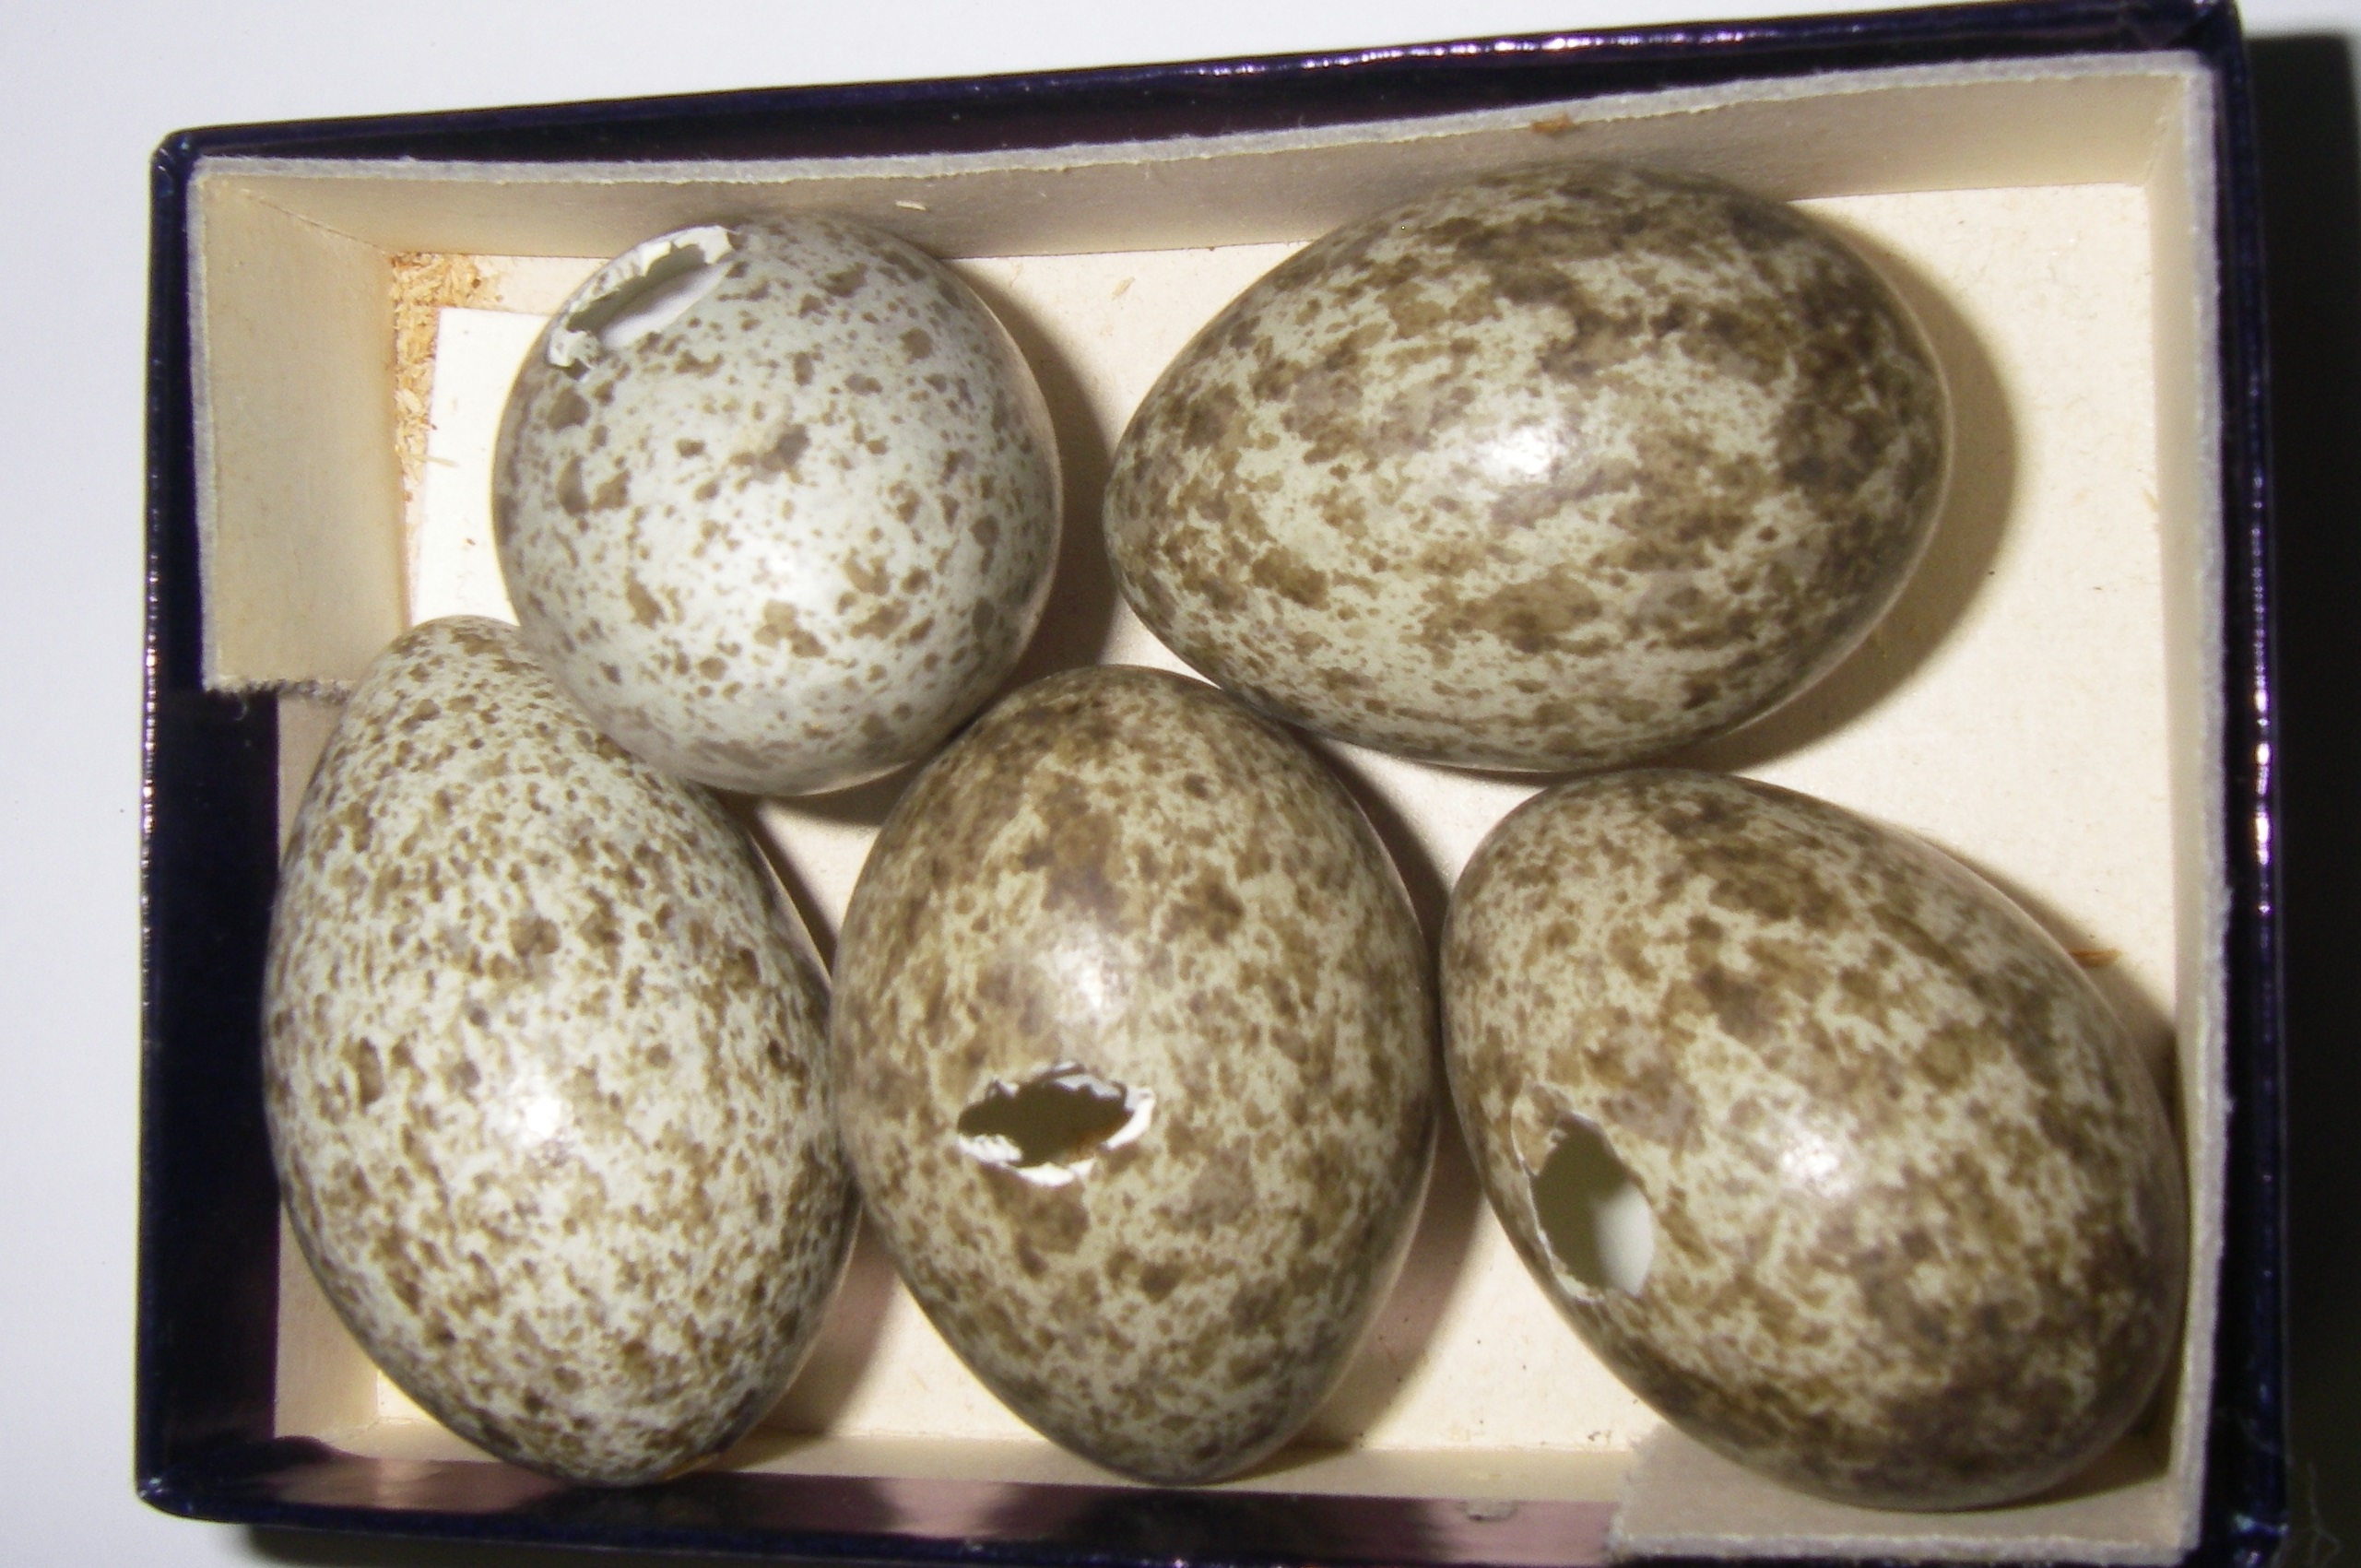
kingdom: Animalia
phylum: Chordata
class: Aves
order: Passeriformes
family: Corvidae
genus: Pica
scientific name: Pica pica
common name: Eurasian magpie
